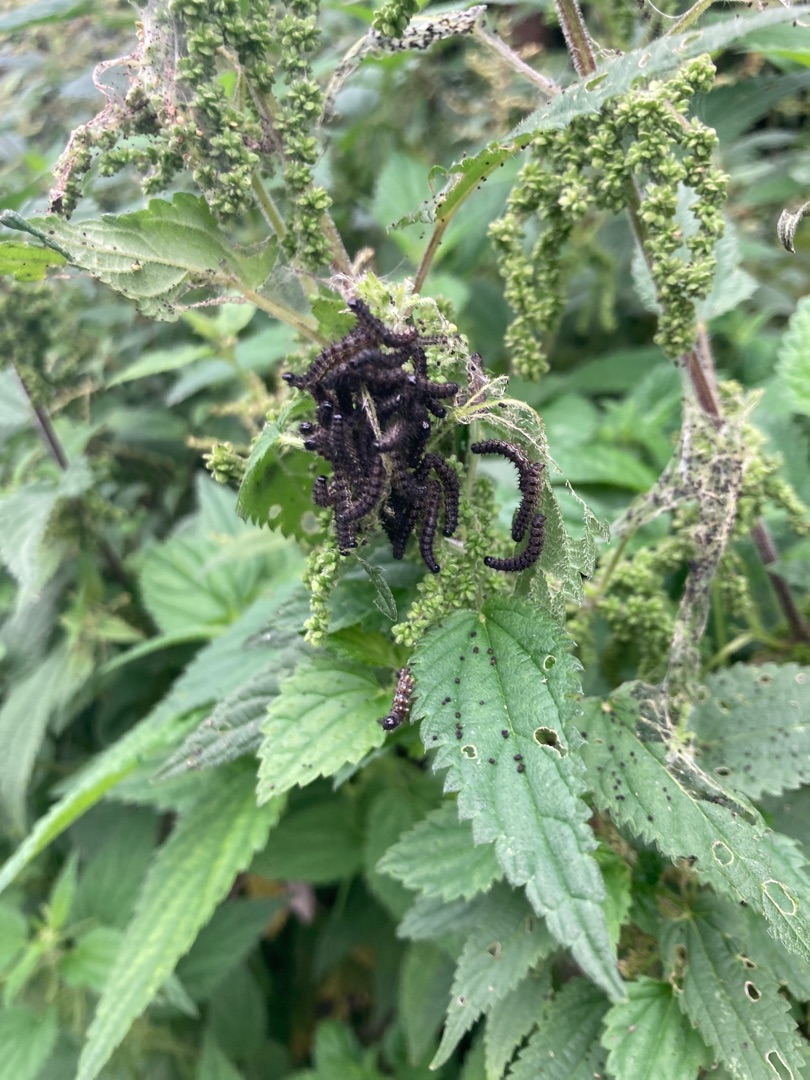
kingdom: Animalia
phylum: Arthropoda
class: Insecta
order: Lepidoptera
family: Nymphalidae
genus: Aglais
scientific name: Aglais io
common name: Dagpåfugleøje
